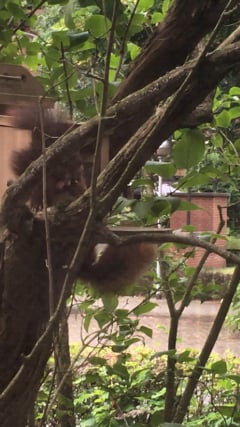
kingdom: Animalia
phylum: Chordata
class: Mammalia
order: Rodentia
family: Sciuridae
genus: Sciurus
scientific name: Sciurus
